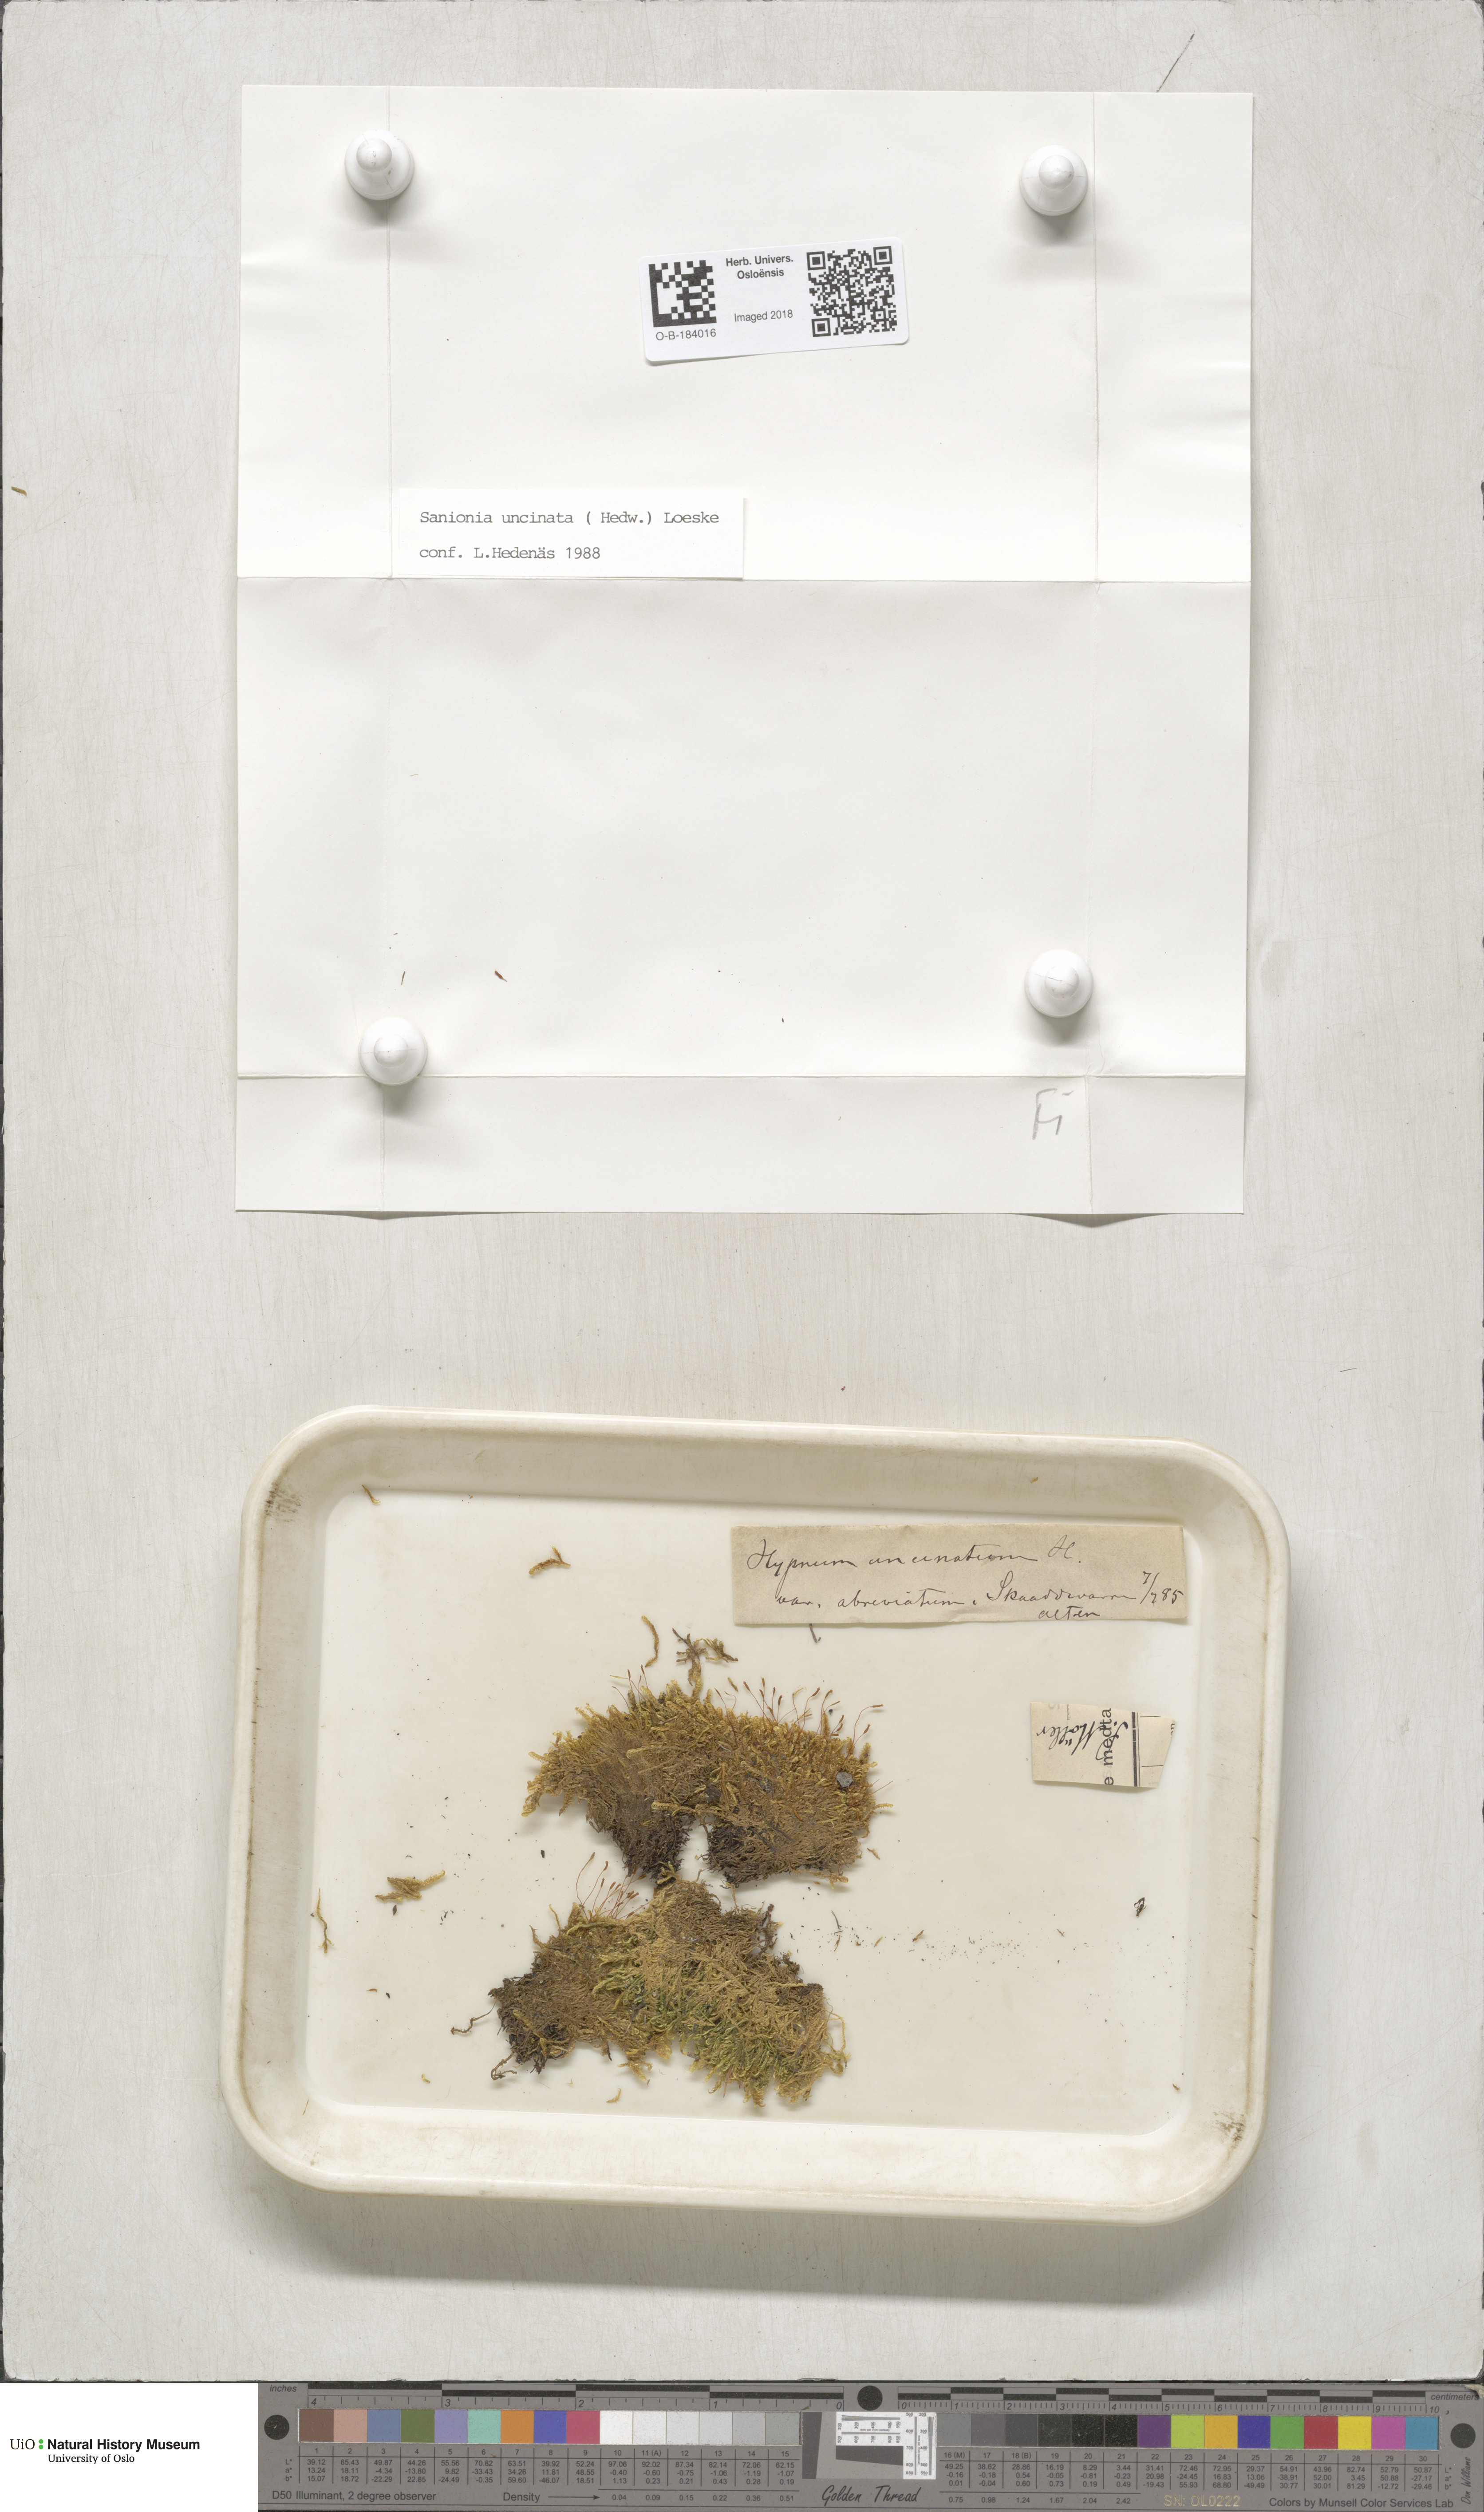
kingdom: Plantae
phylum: Bryophyta
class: Bryopsida
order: Hypnales
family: Scorpidiaceae
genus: Sanionia
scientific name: Sanionia uncinata
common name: Sickle moss
